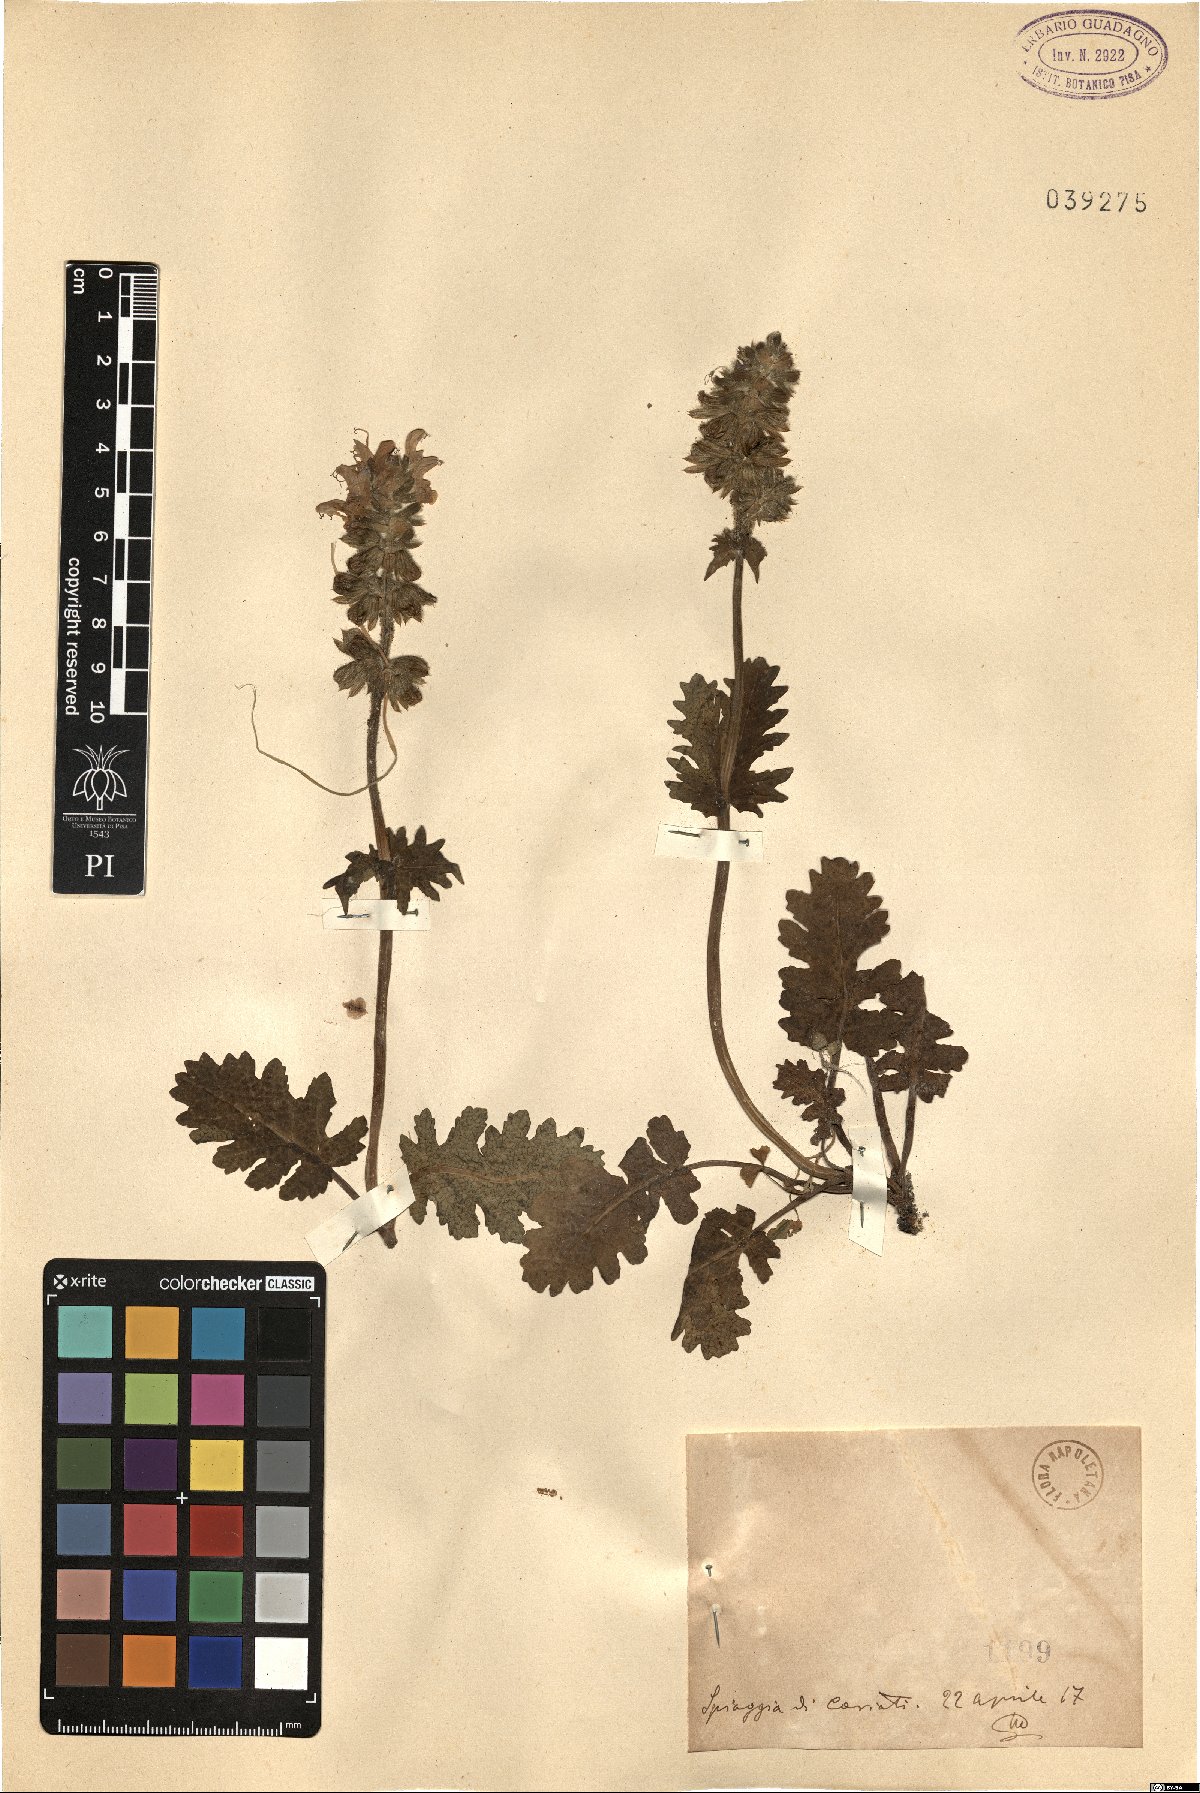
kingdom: Plantae
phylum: Tracheophyta
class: Magnoliopsida
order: Lamiales
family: Lamiaceae
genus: Salvia
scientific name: Salvia
